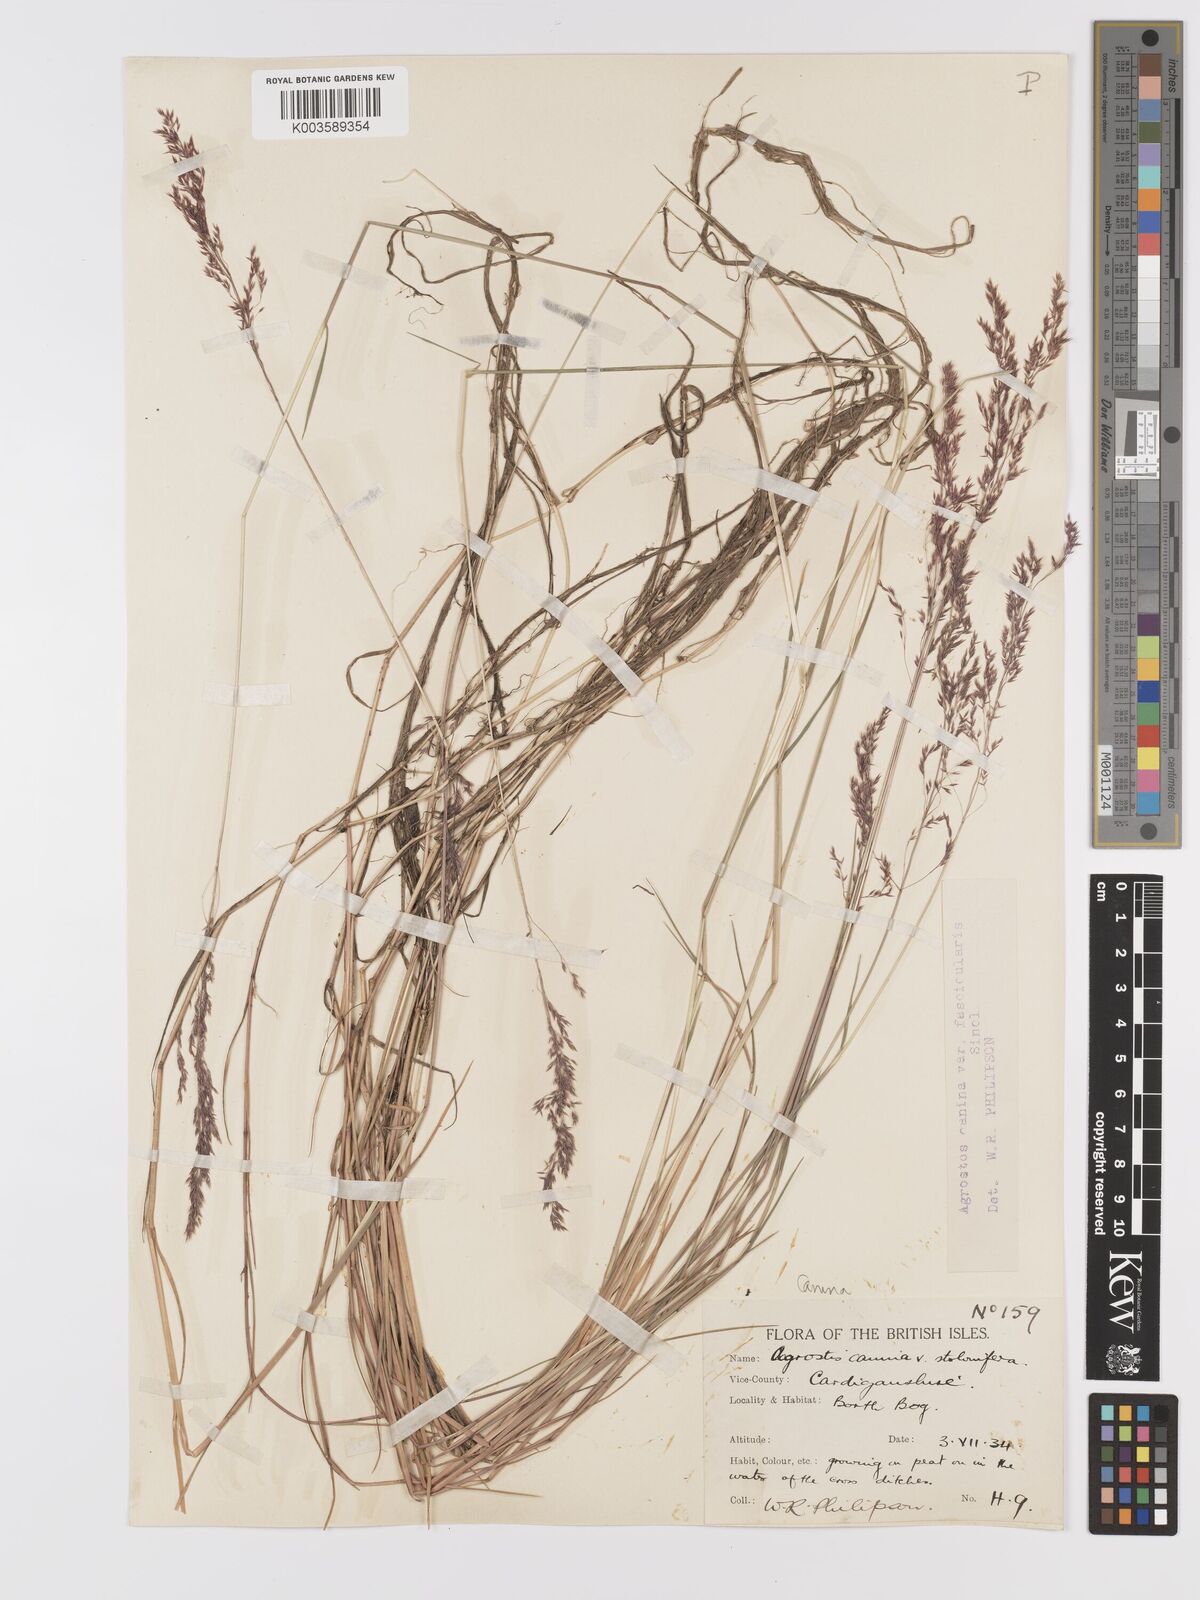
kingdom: Plantae
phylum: Tracheophyta
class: Liliopsida
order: Poales
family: Poaceae
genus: Agrostis
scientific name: Agrostis canina
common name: Velvet bent
